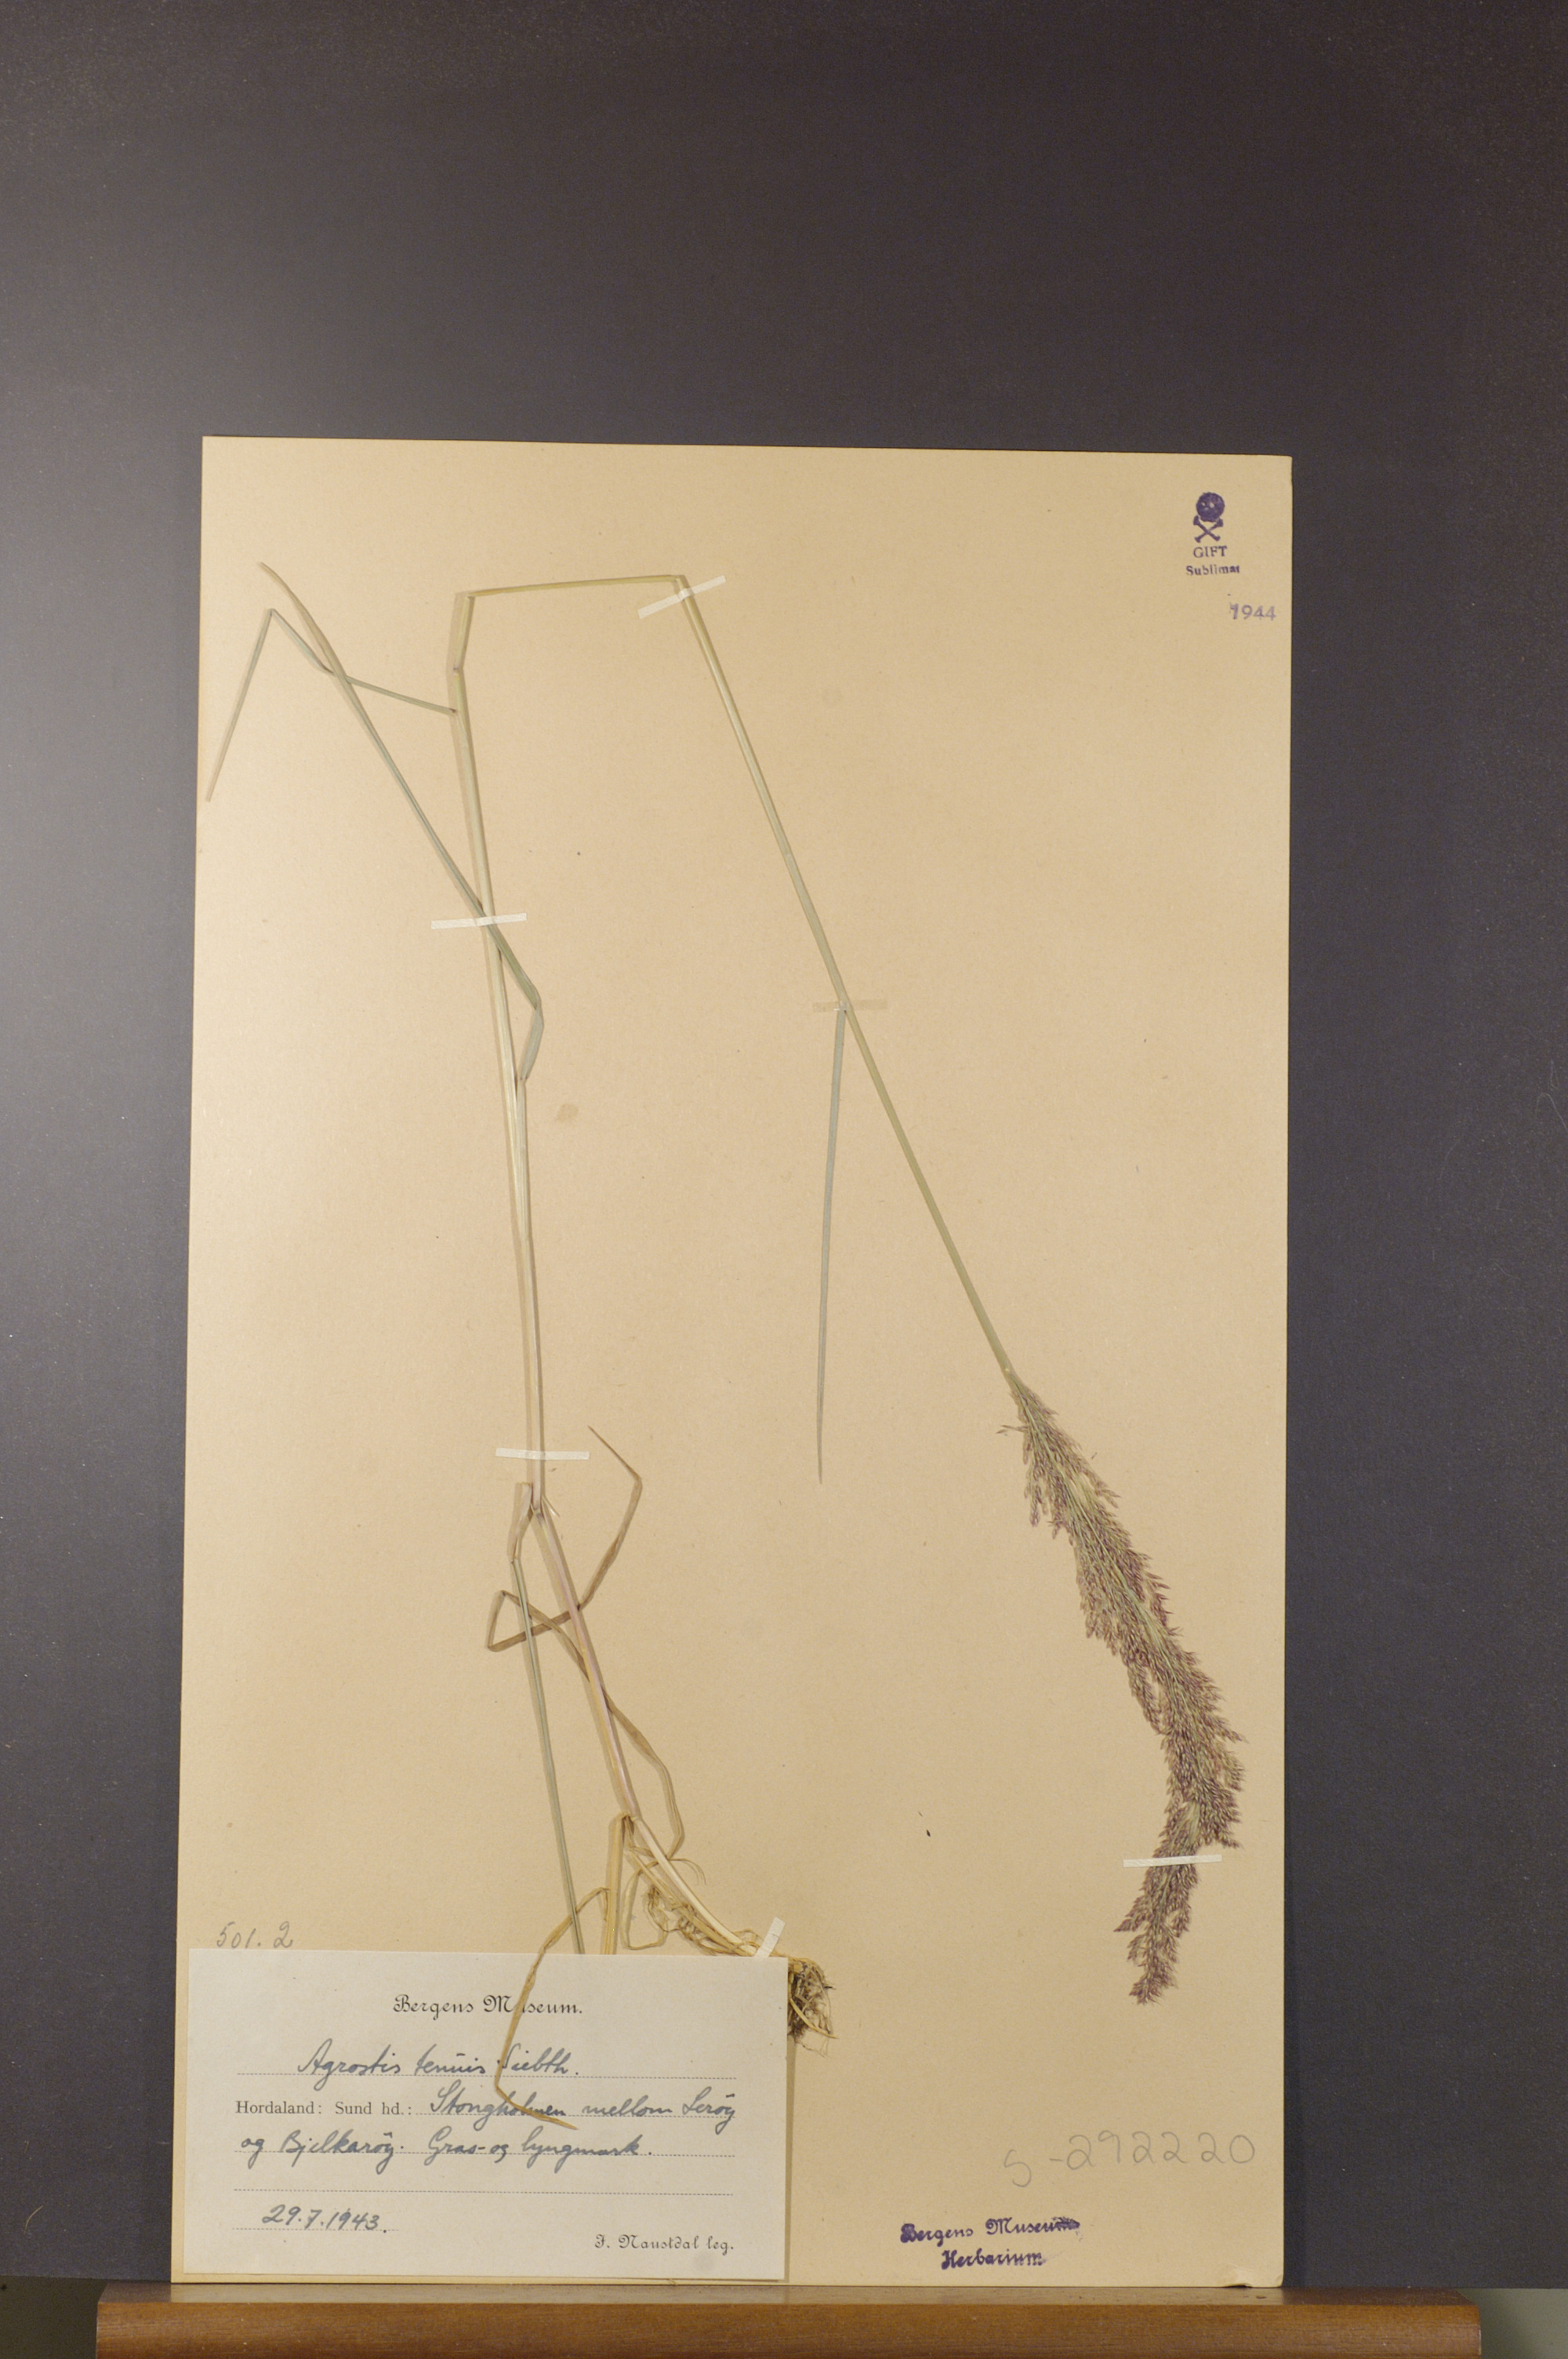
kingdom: Plantae
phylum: Tracheophyta
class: Liliopsida
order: Poales
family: Poaceae
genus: Agrostis
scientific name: Agrostis capillaris
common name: Colonial bentgrass
